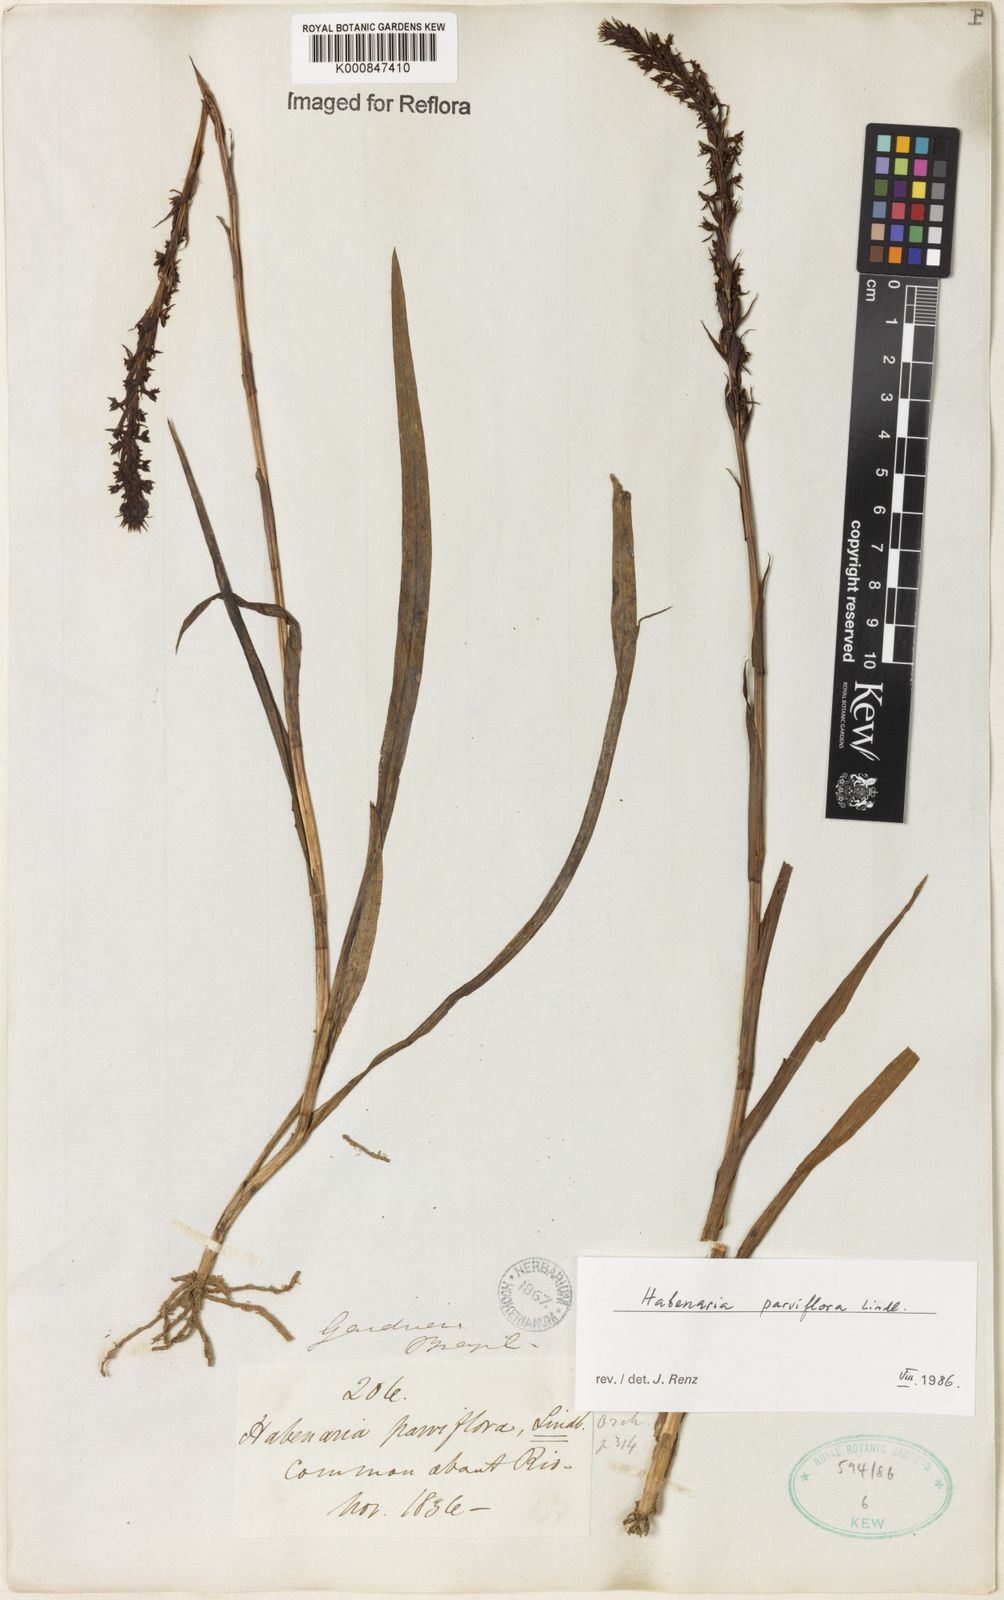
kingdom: Plantae
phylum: Tracheophyta
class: Liliopsida
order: Asparagales
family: Orchidaceae
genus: Habenaria
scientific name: Habenaria parviflora
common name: Small flowered habenaria
